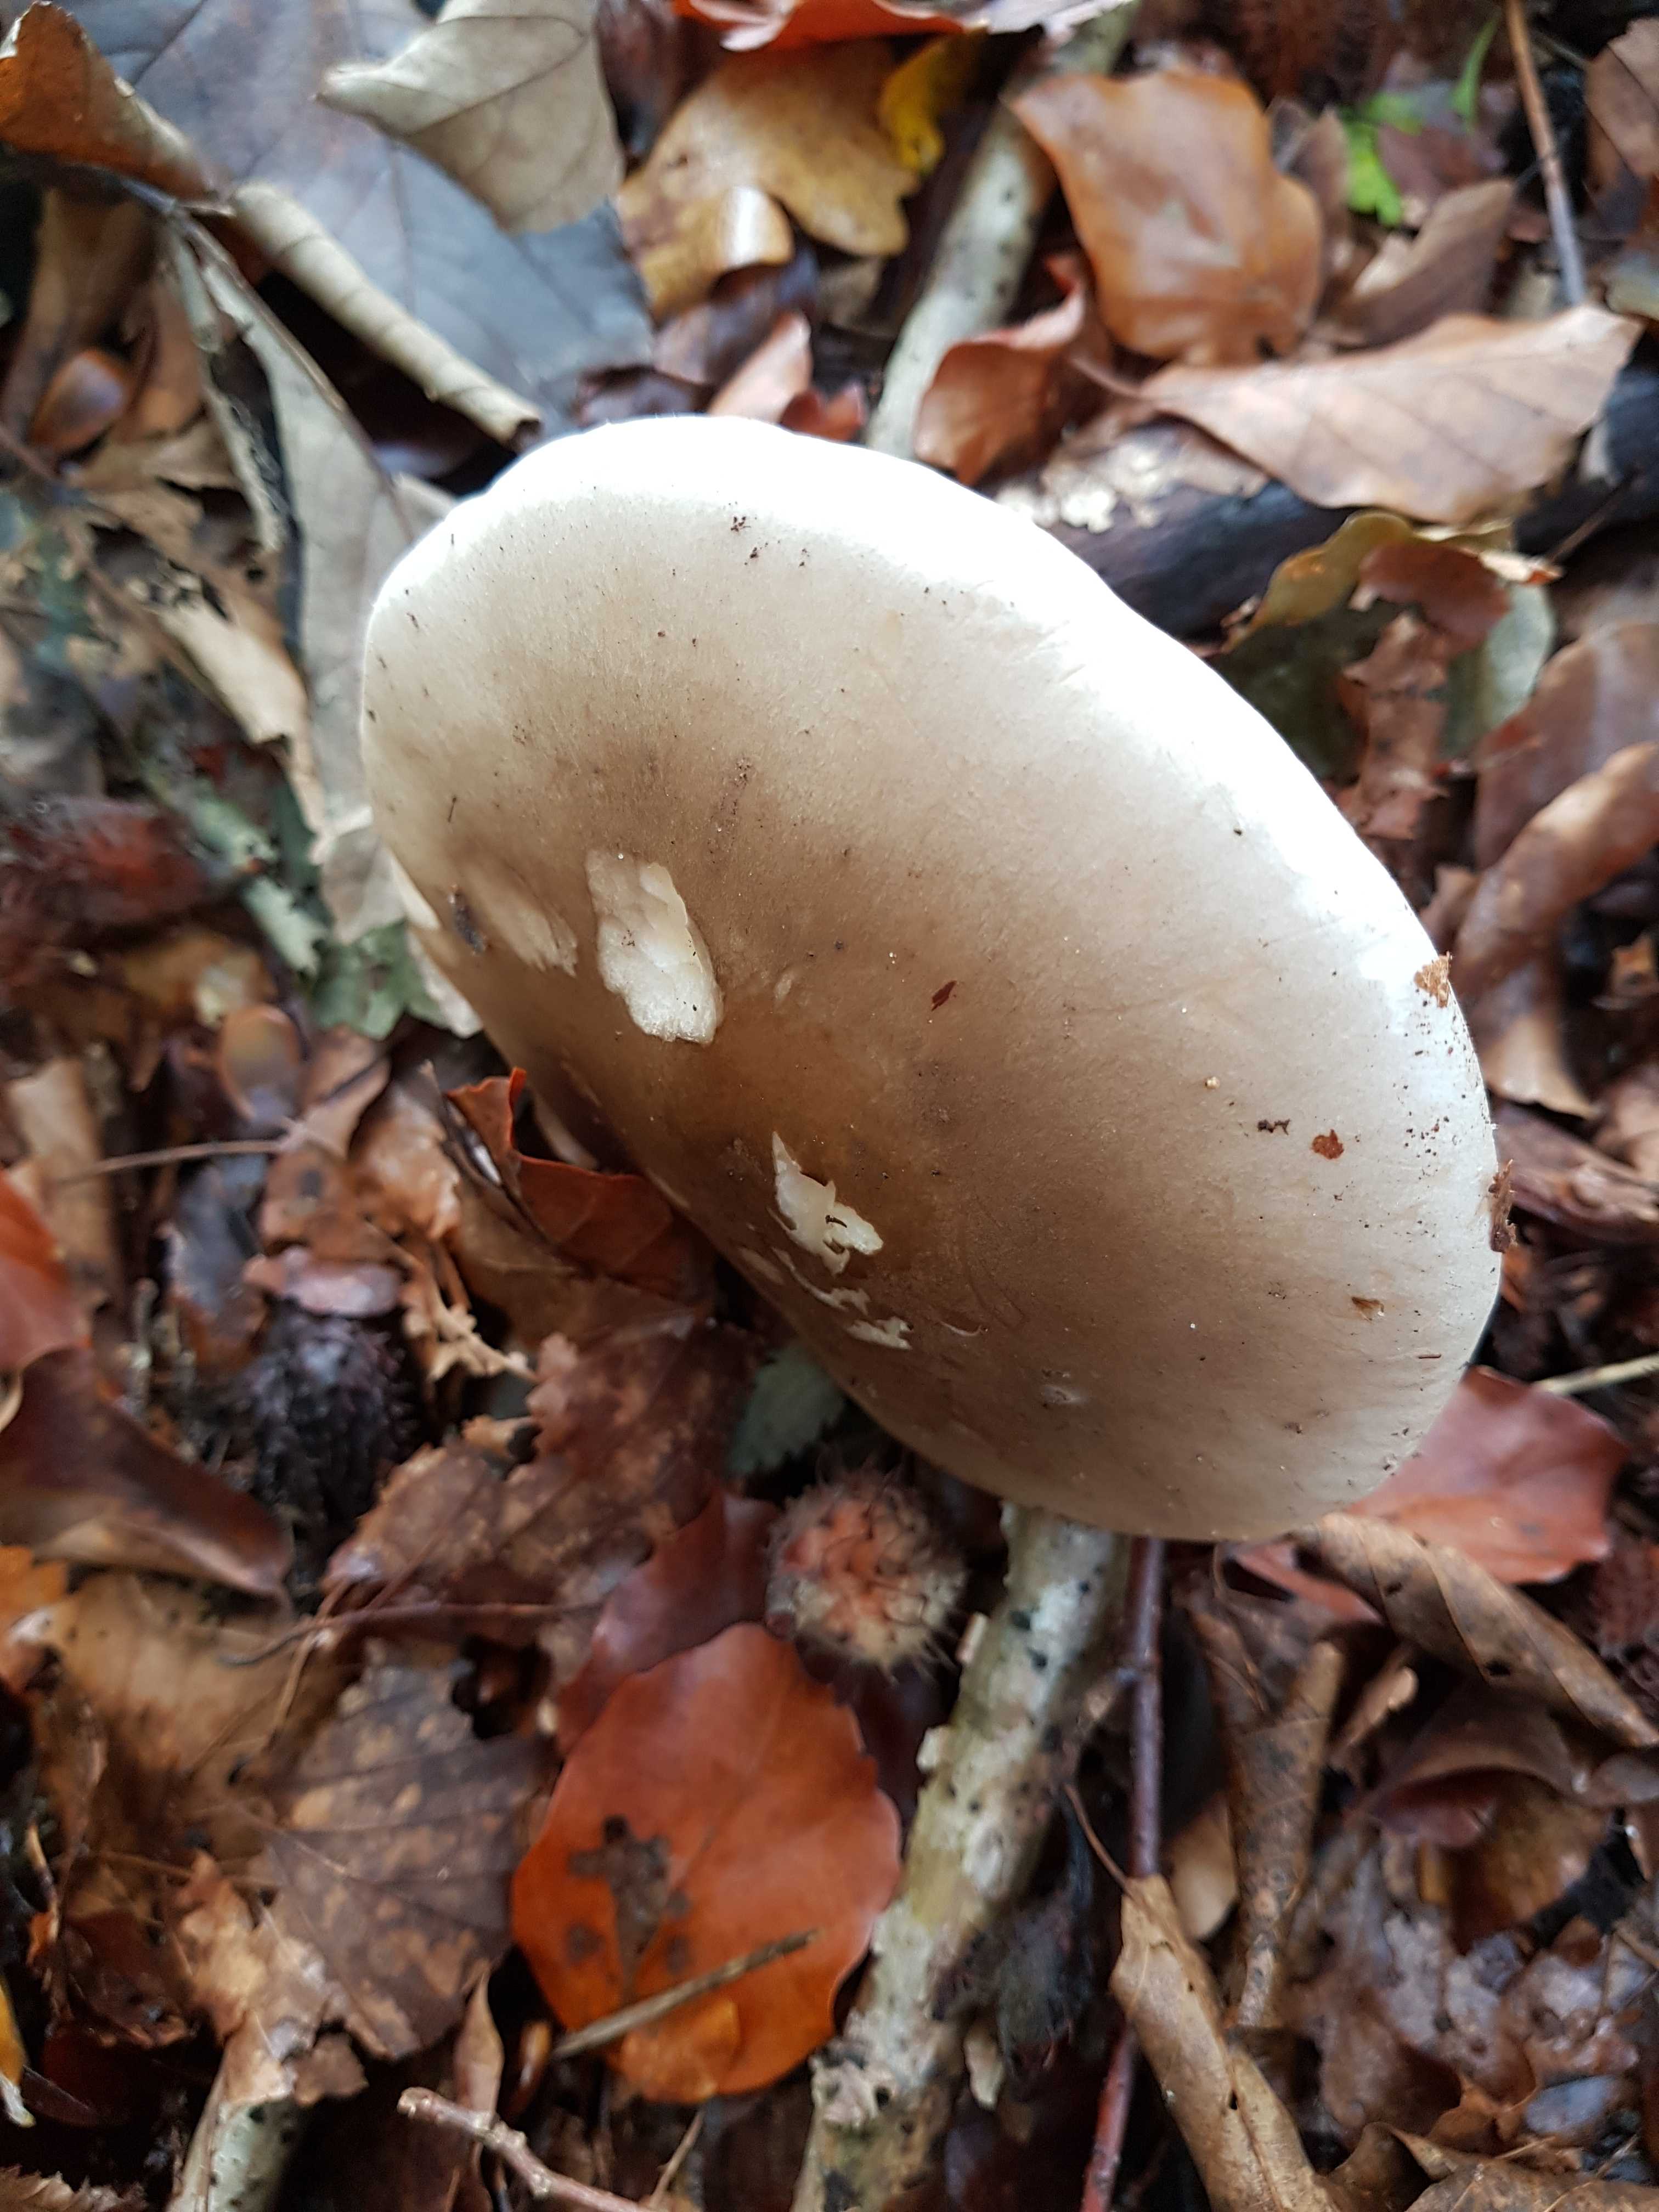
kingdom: Fungi
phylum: Basidiomycota
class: Agaricomycetes
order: Agaricales
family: Tricholomataceae
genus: Clitocybe
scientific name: Clitocybe nebularis
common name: tåge-tragthat
